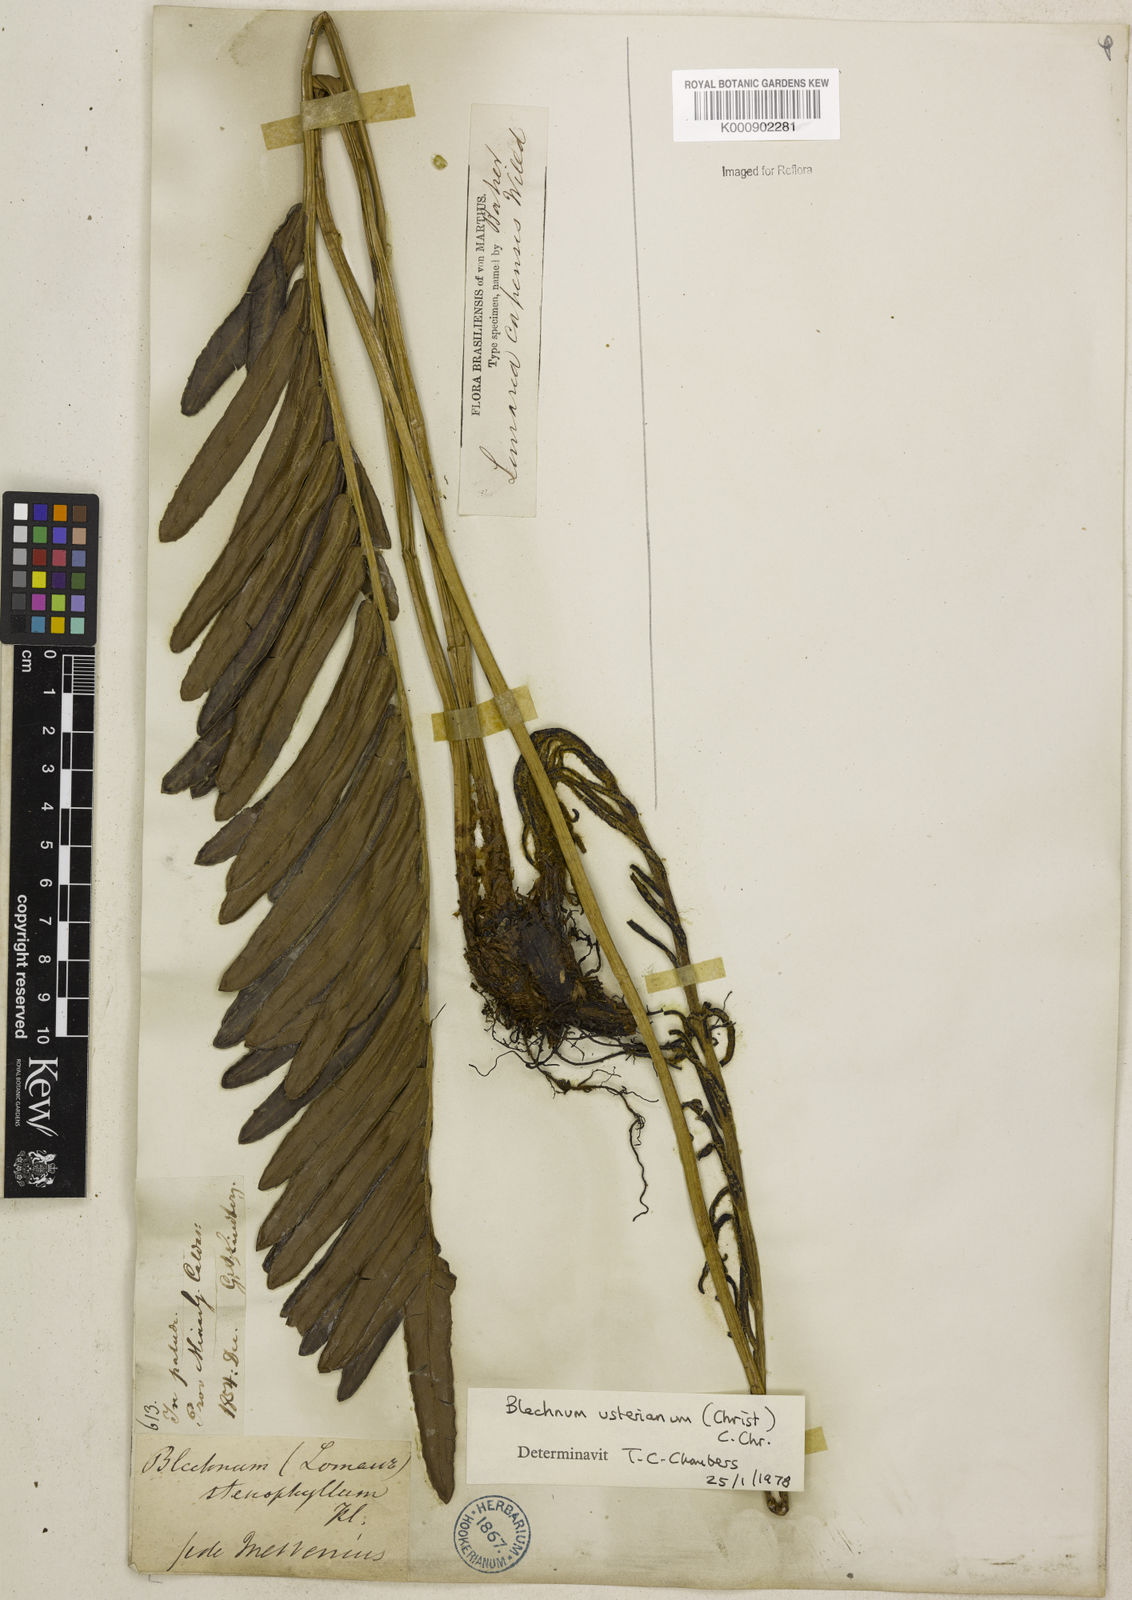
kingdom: Plantae
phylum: Tracheophyta
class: Polypodiopsida
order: Polypodiales
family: Blechnaceae
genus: Parablechnum
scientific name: Parablechnum usterianum
